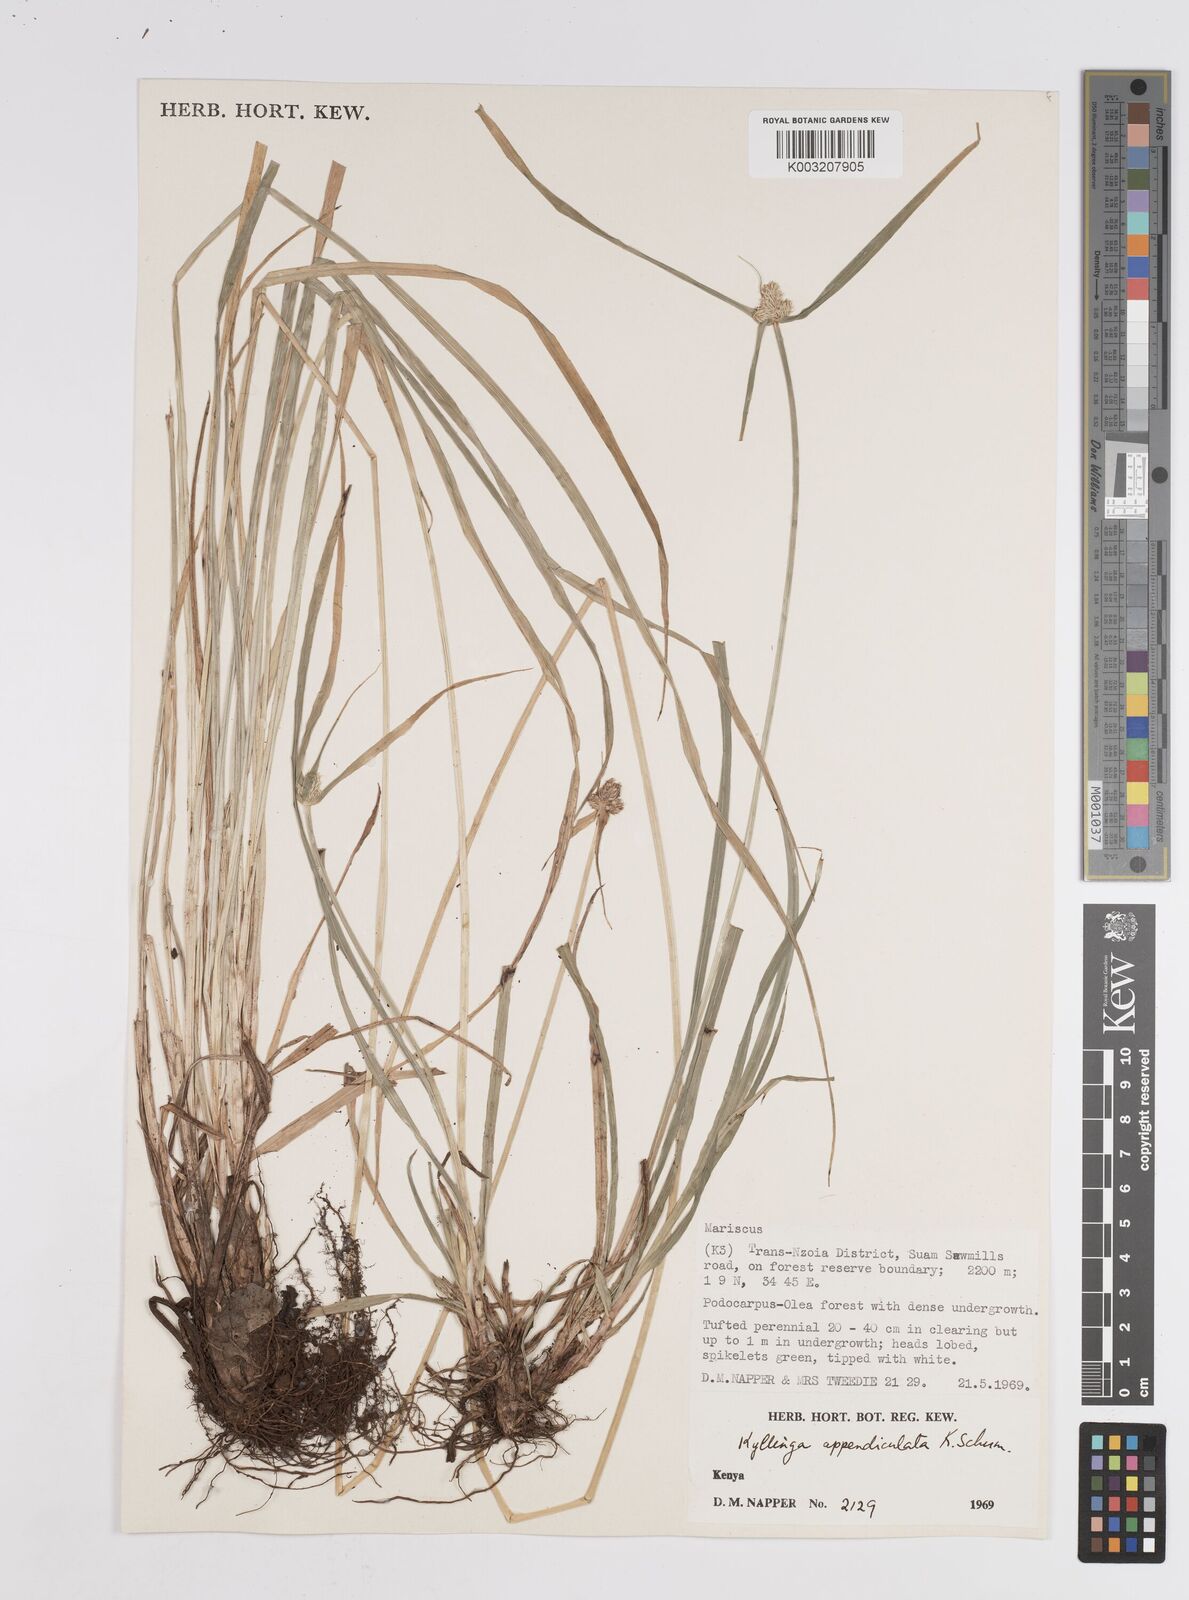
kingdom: Plantae
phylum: Tracheophyta
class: Liliopsida
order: Poales
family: Cyperaceae
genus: Cyperus
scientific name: Cyperus
